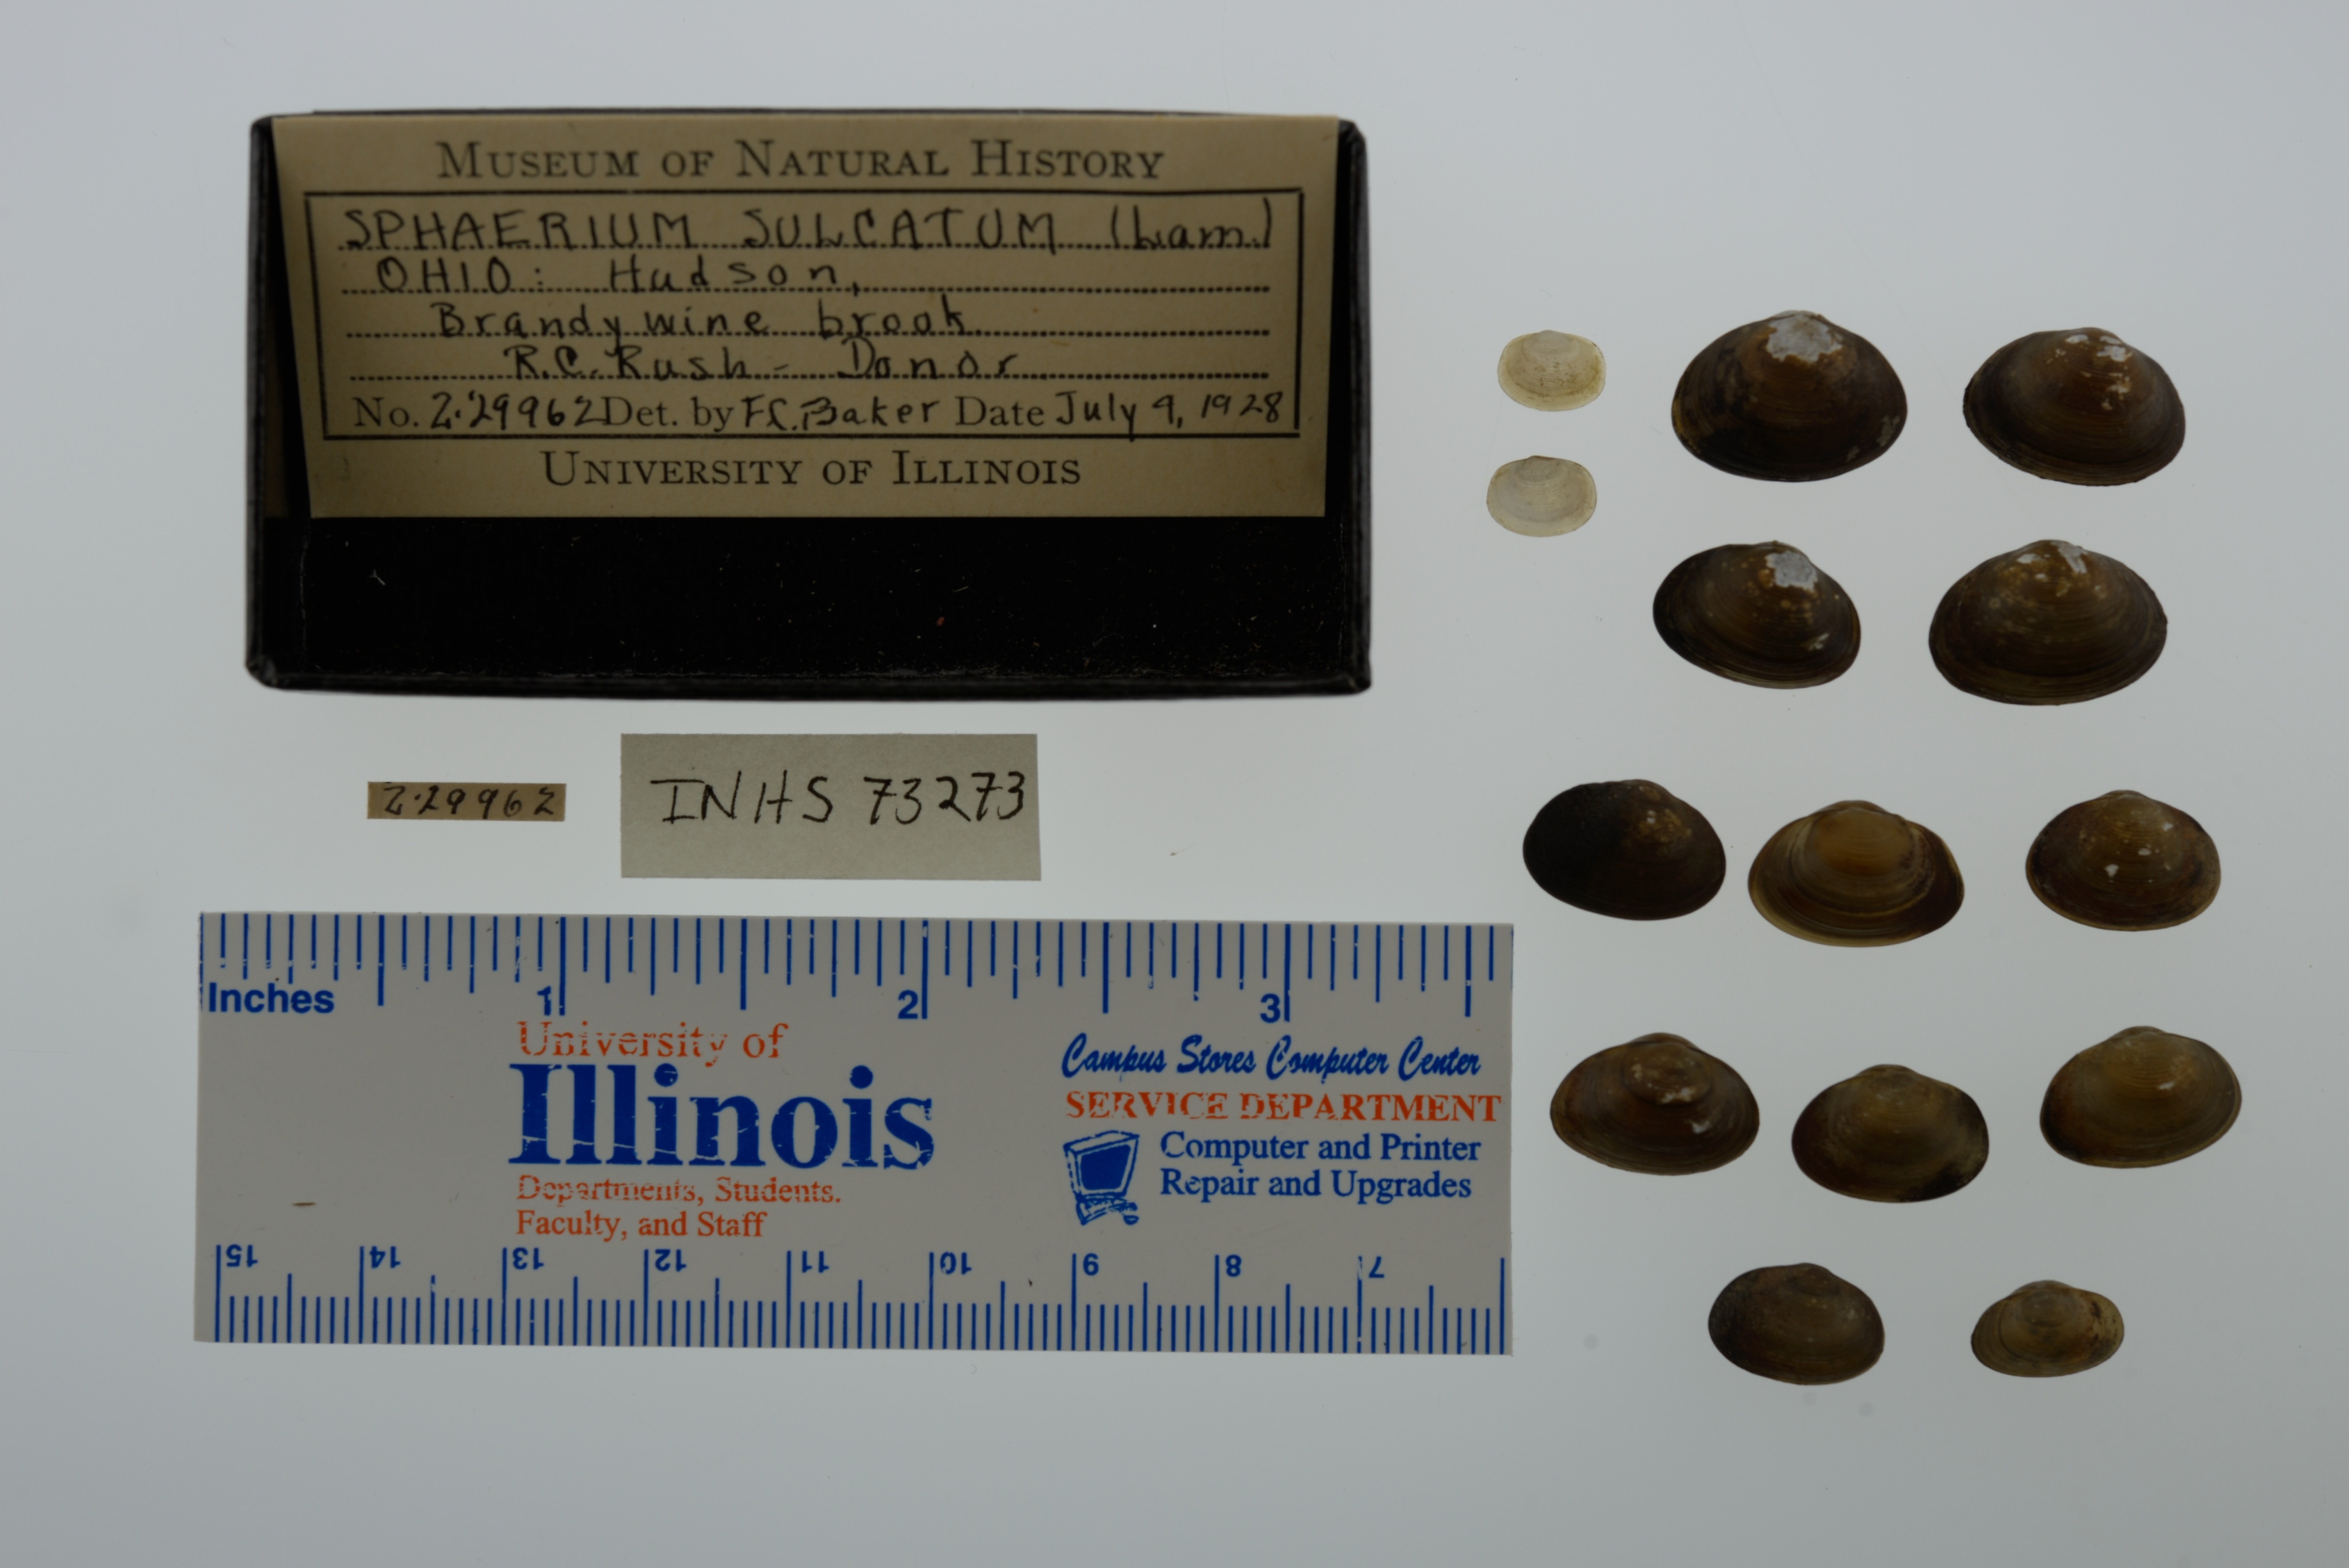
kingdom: Animalia
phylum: Mollusca
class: Bivalvia
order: Sphaeriida
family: Sphaeriidae
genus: Sphaerium
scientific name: Sphaerium simile
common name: Grooved fingernailclam
